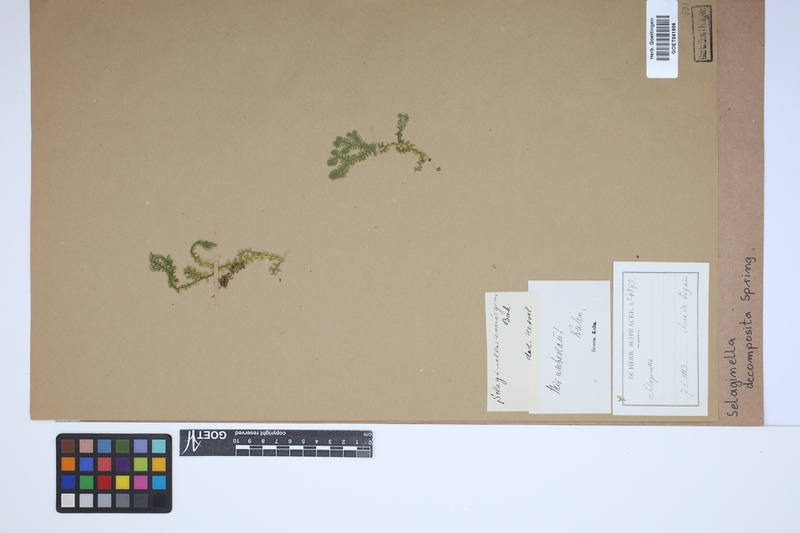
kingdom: Plantae
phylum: Tracheophyta
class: Lycopodiopsida
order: Selaginellales
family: Selaginellaceae
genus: Selaginella
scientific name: Selaginella decomposita
